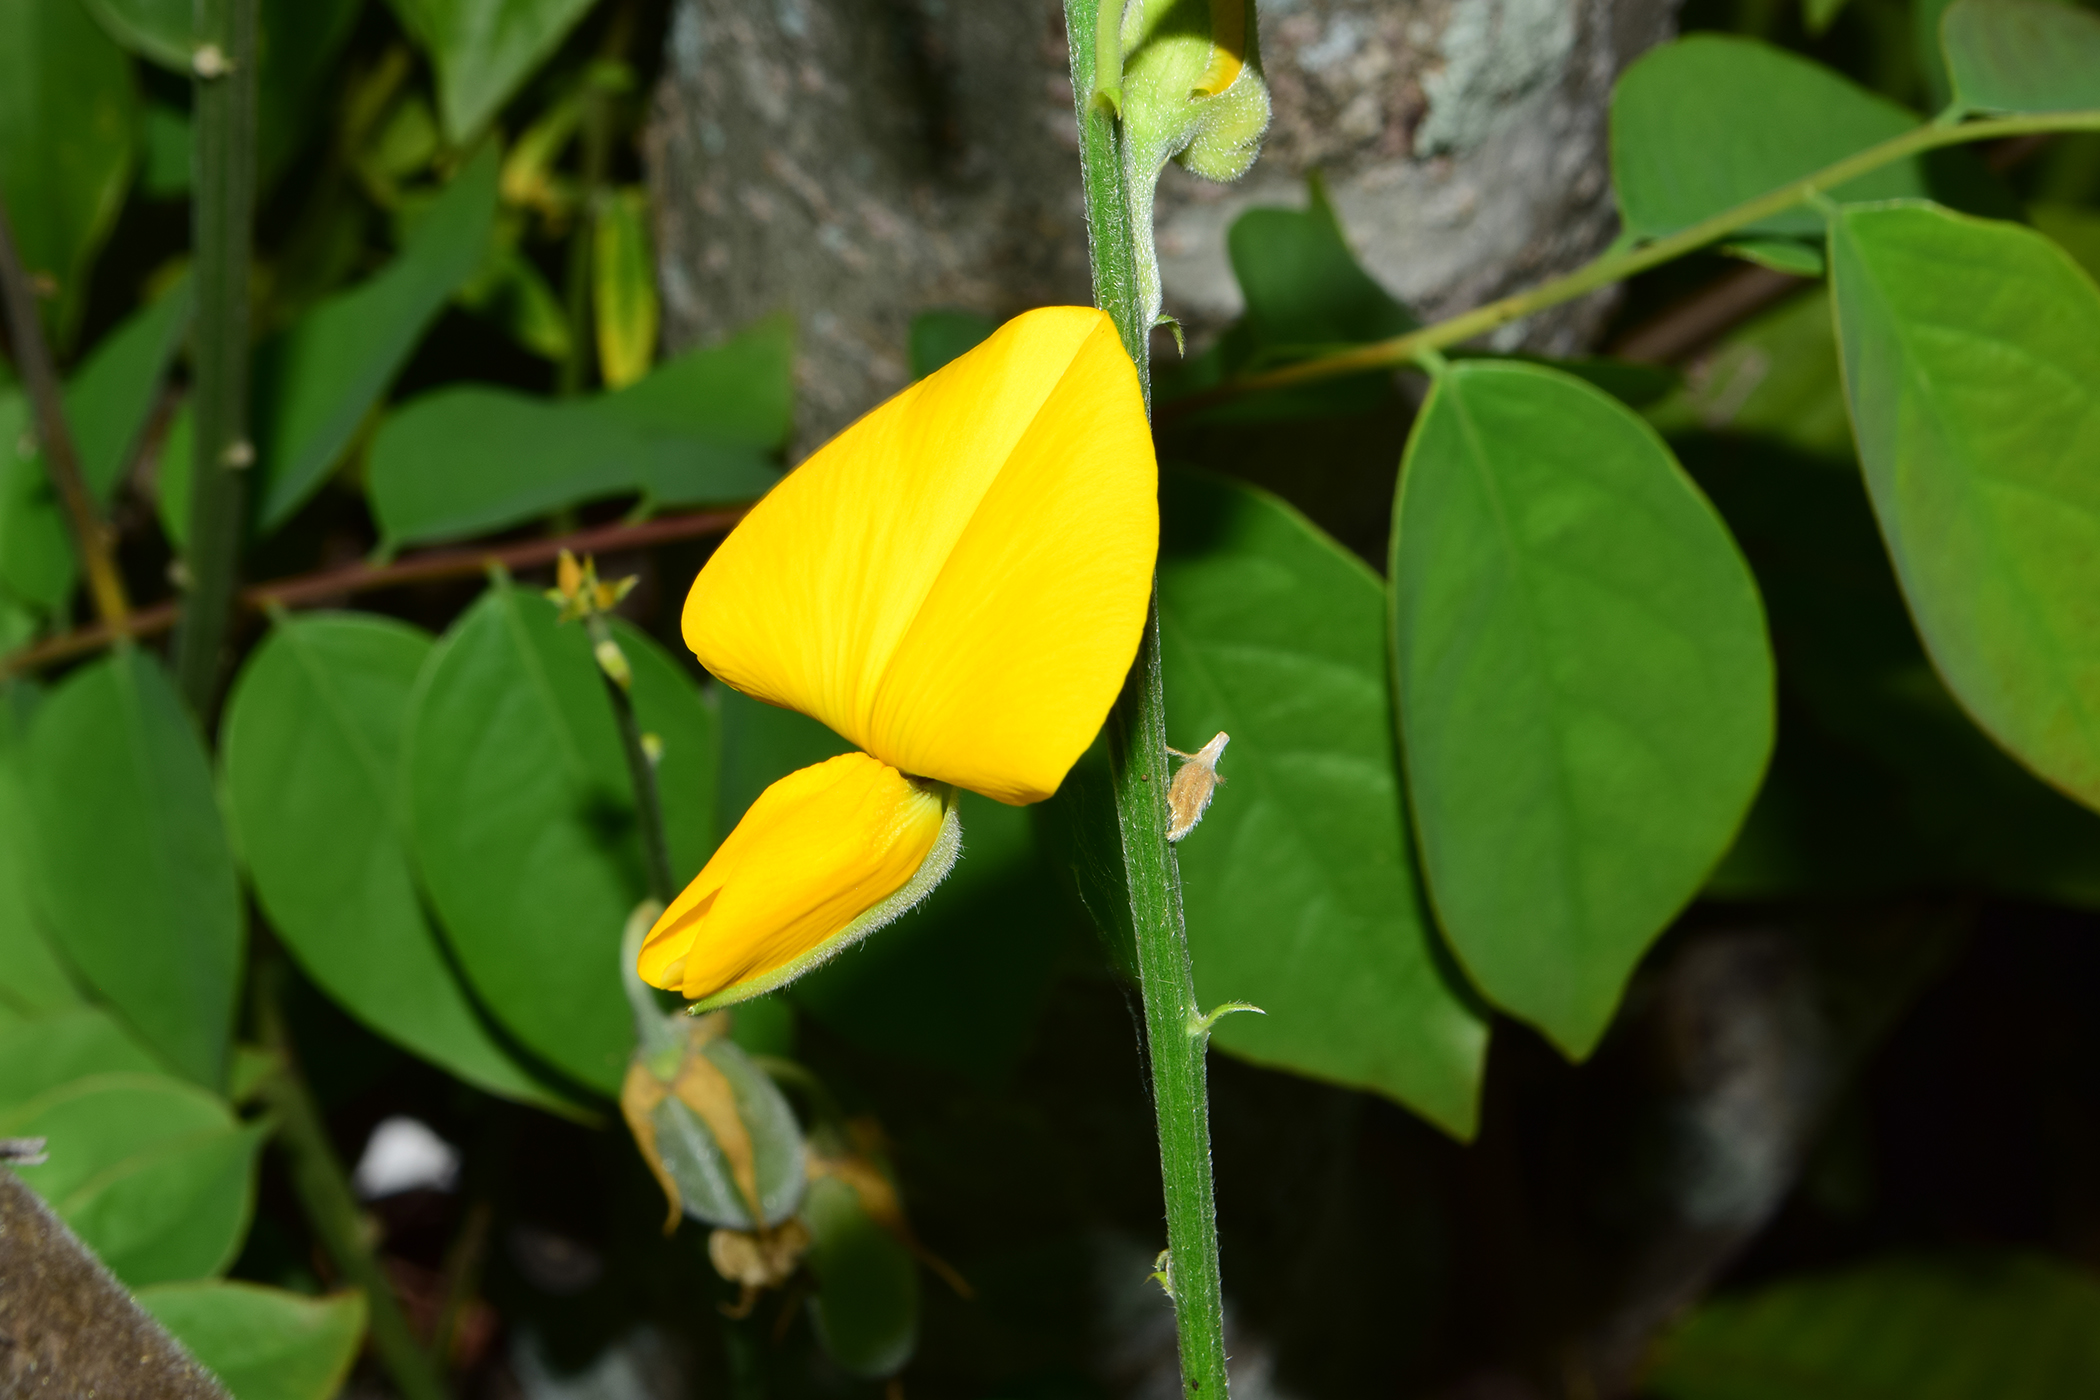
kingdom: Plantae
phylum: Tracheophyta
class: Magnoliopsida
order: Fabales
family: Fabaceae
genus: Crotalaria
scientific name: Crotalaria juncea
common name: Sunn hemp
